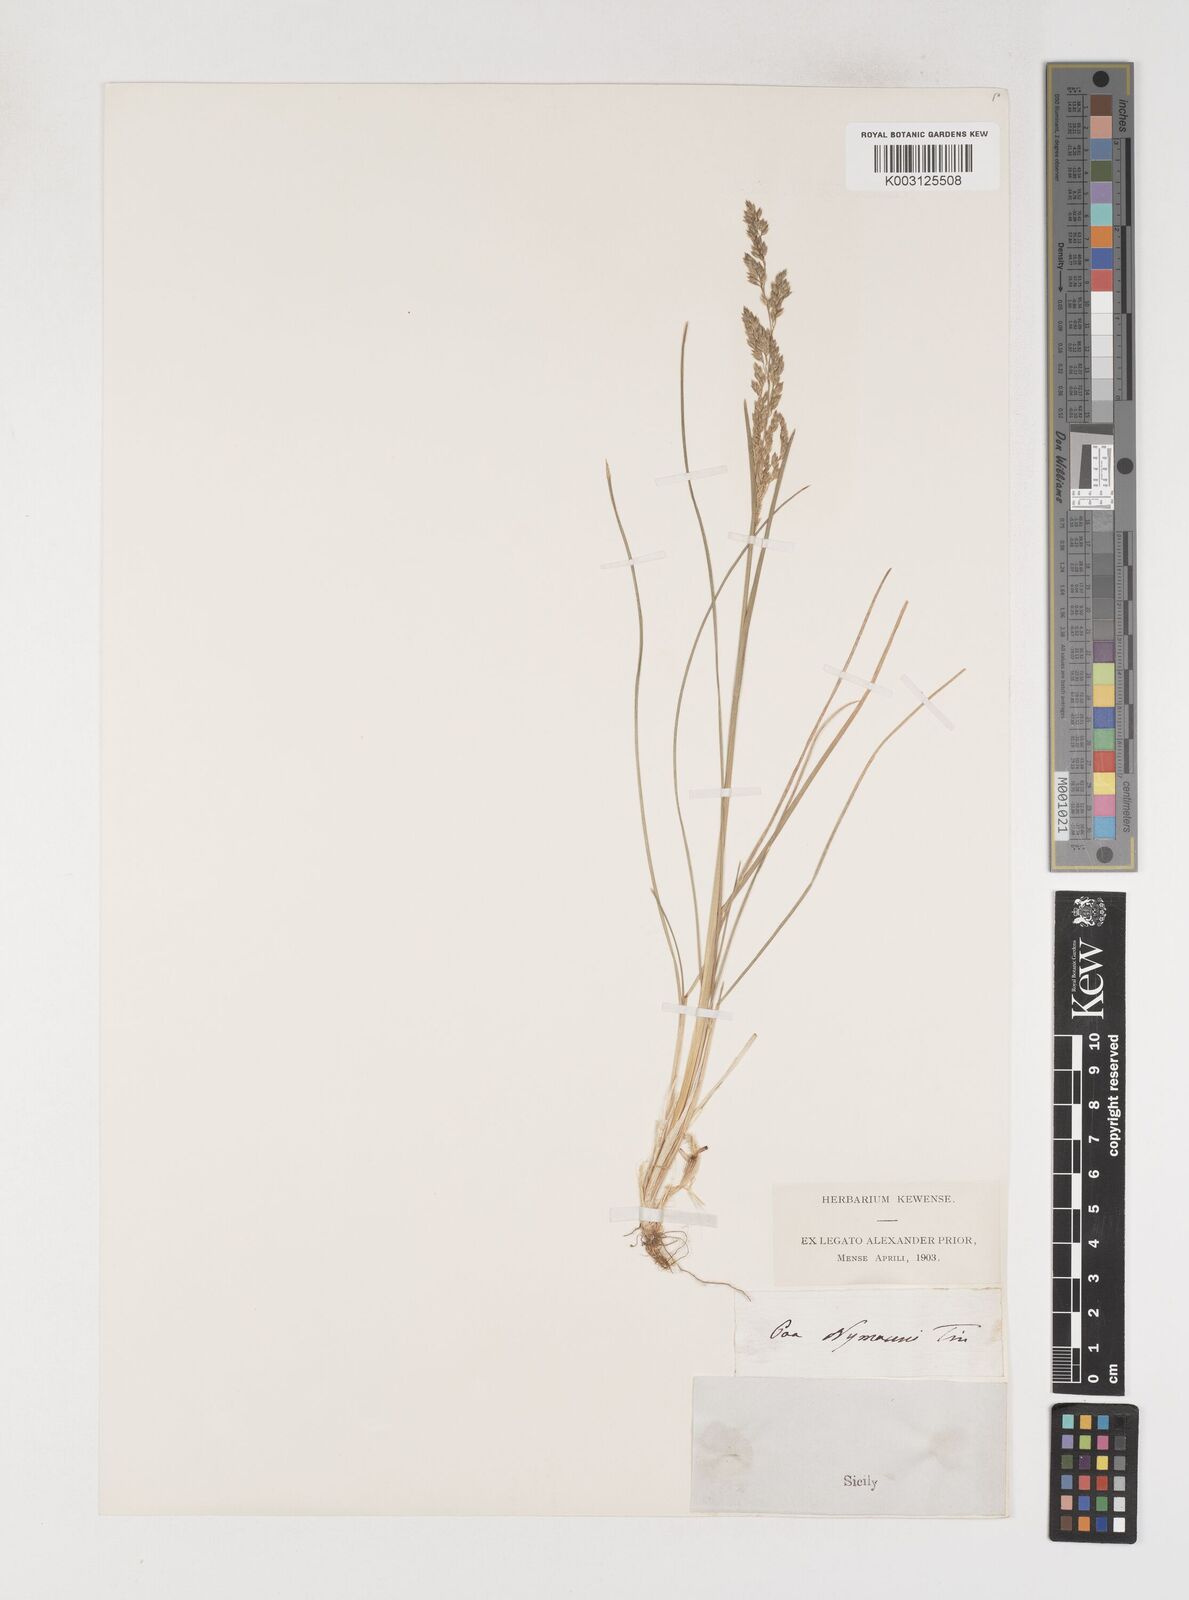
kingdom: Plantae
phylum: Tracheophyta
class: Liliopsida
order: Poales
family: Poaceae
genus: Poa
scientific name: Poa angustifolia
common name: Narrow-leaved meadow-grass
